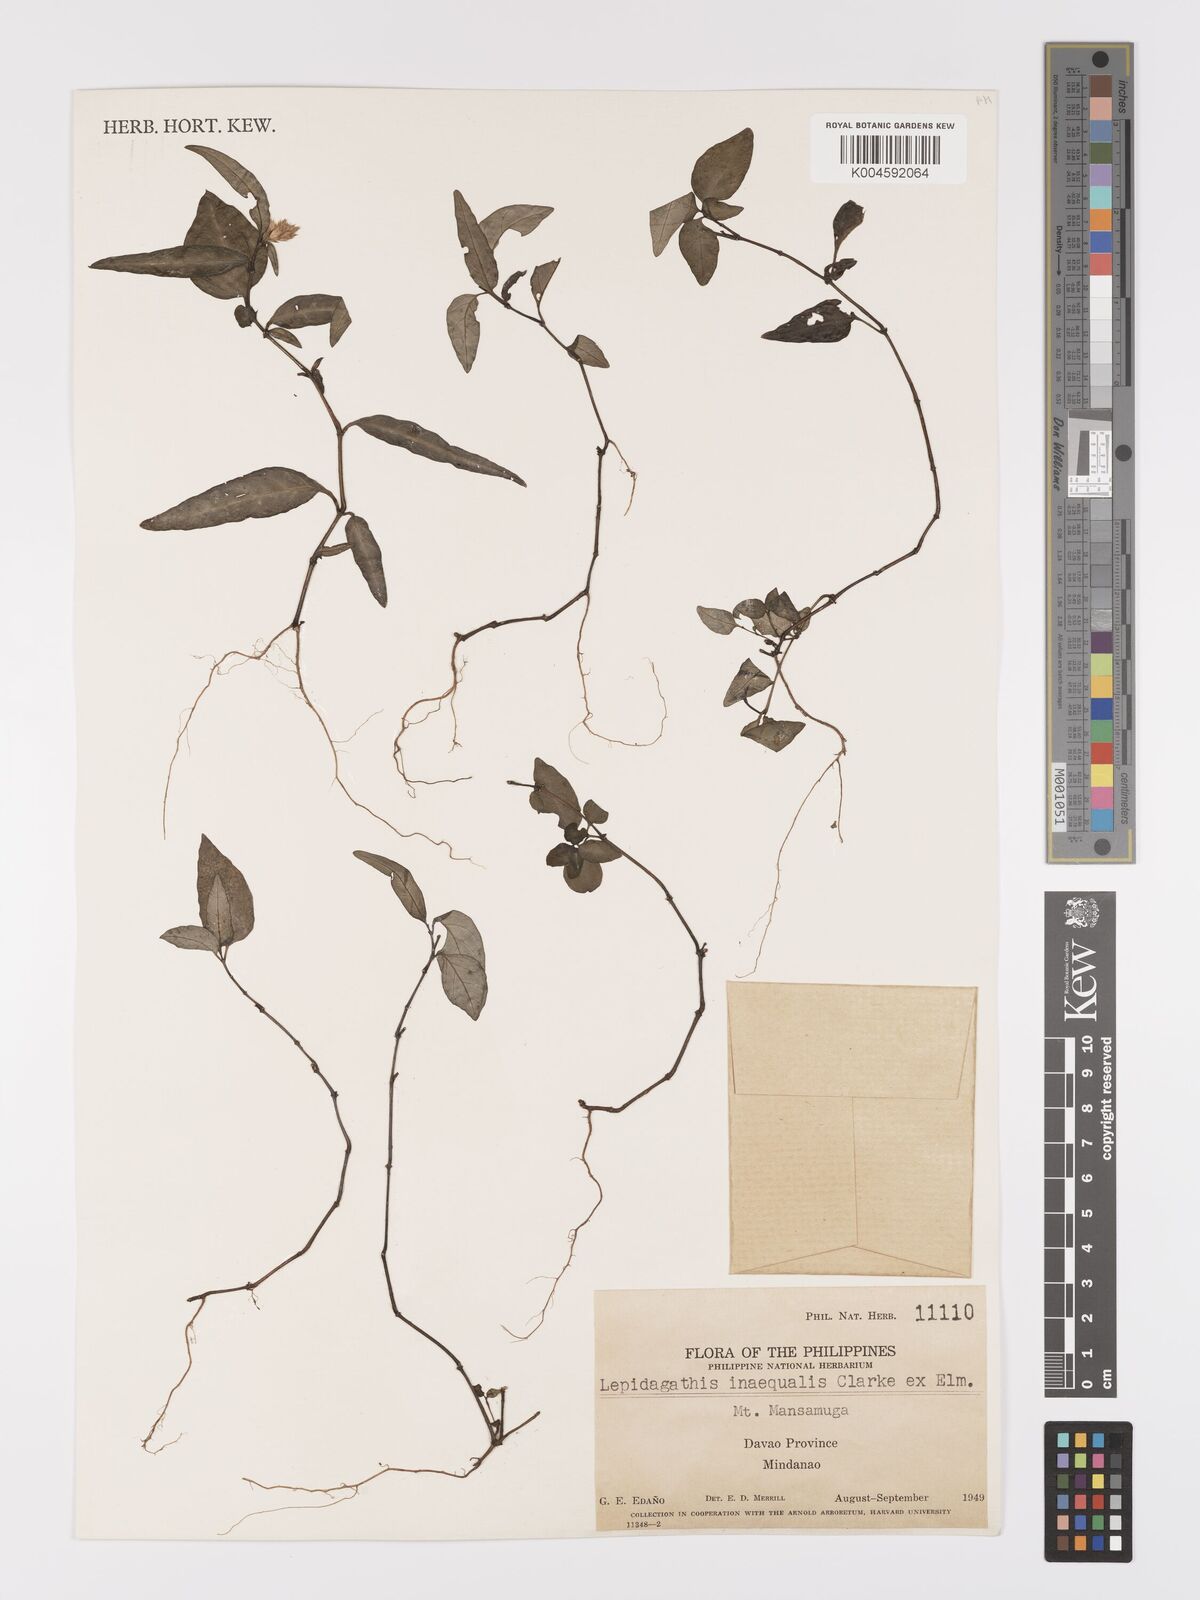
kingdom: Plantae
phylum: Tracheophyta
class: Magnoliopsida
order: Lamiales
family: Acanthaceae
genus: Lepidagathis
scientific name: Lepidagathis inaequalis
